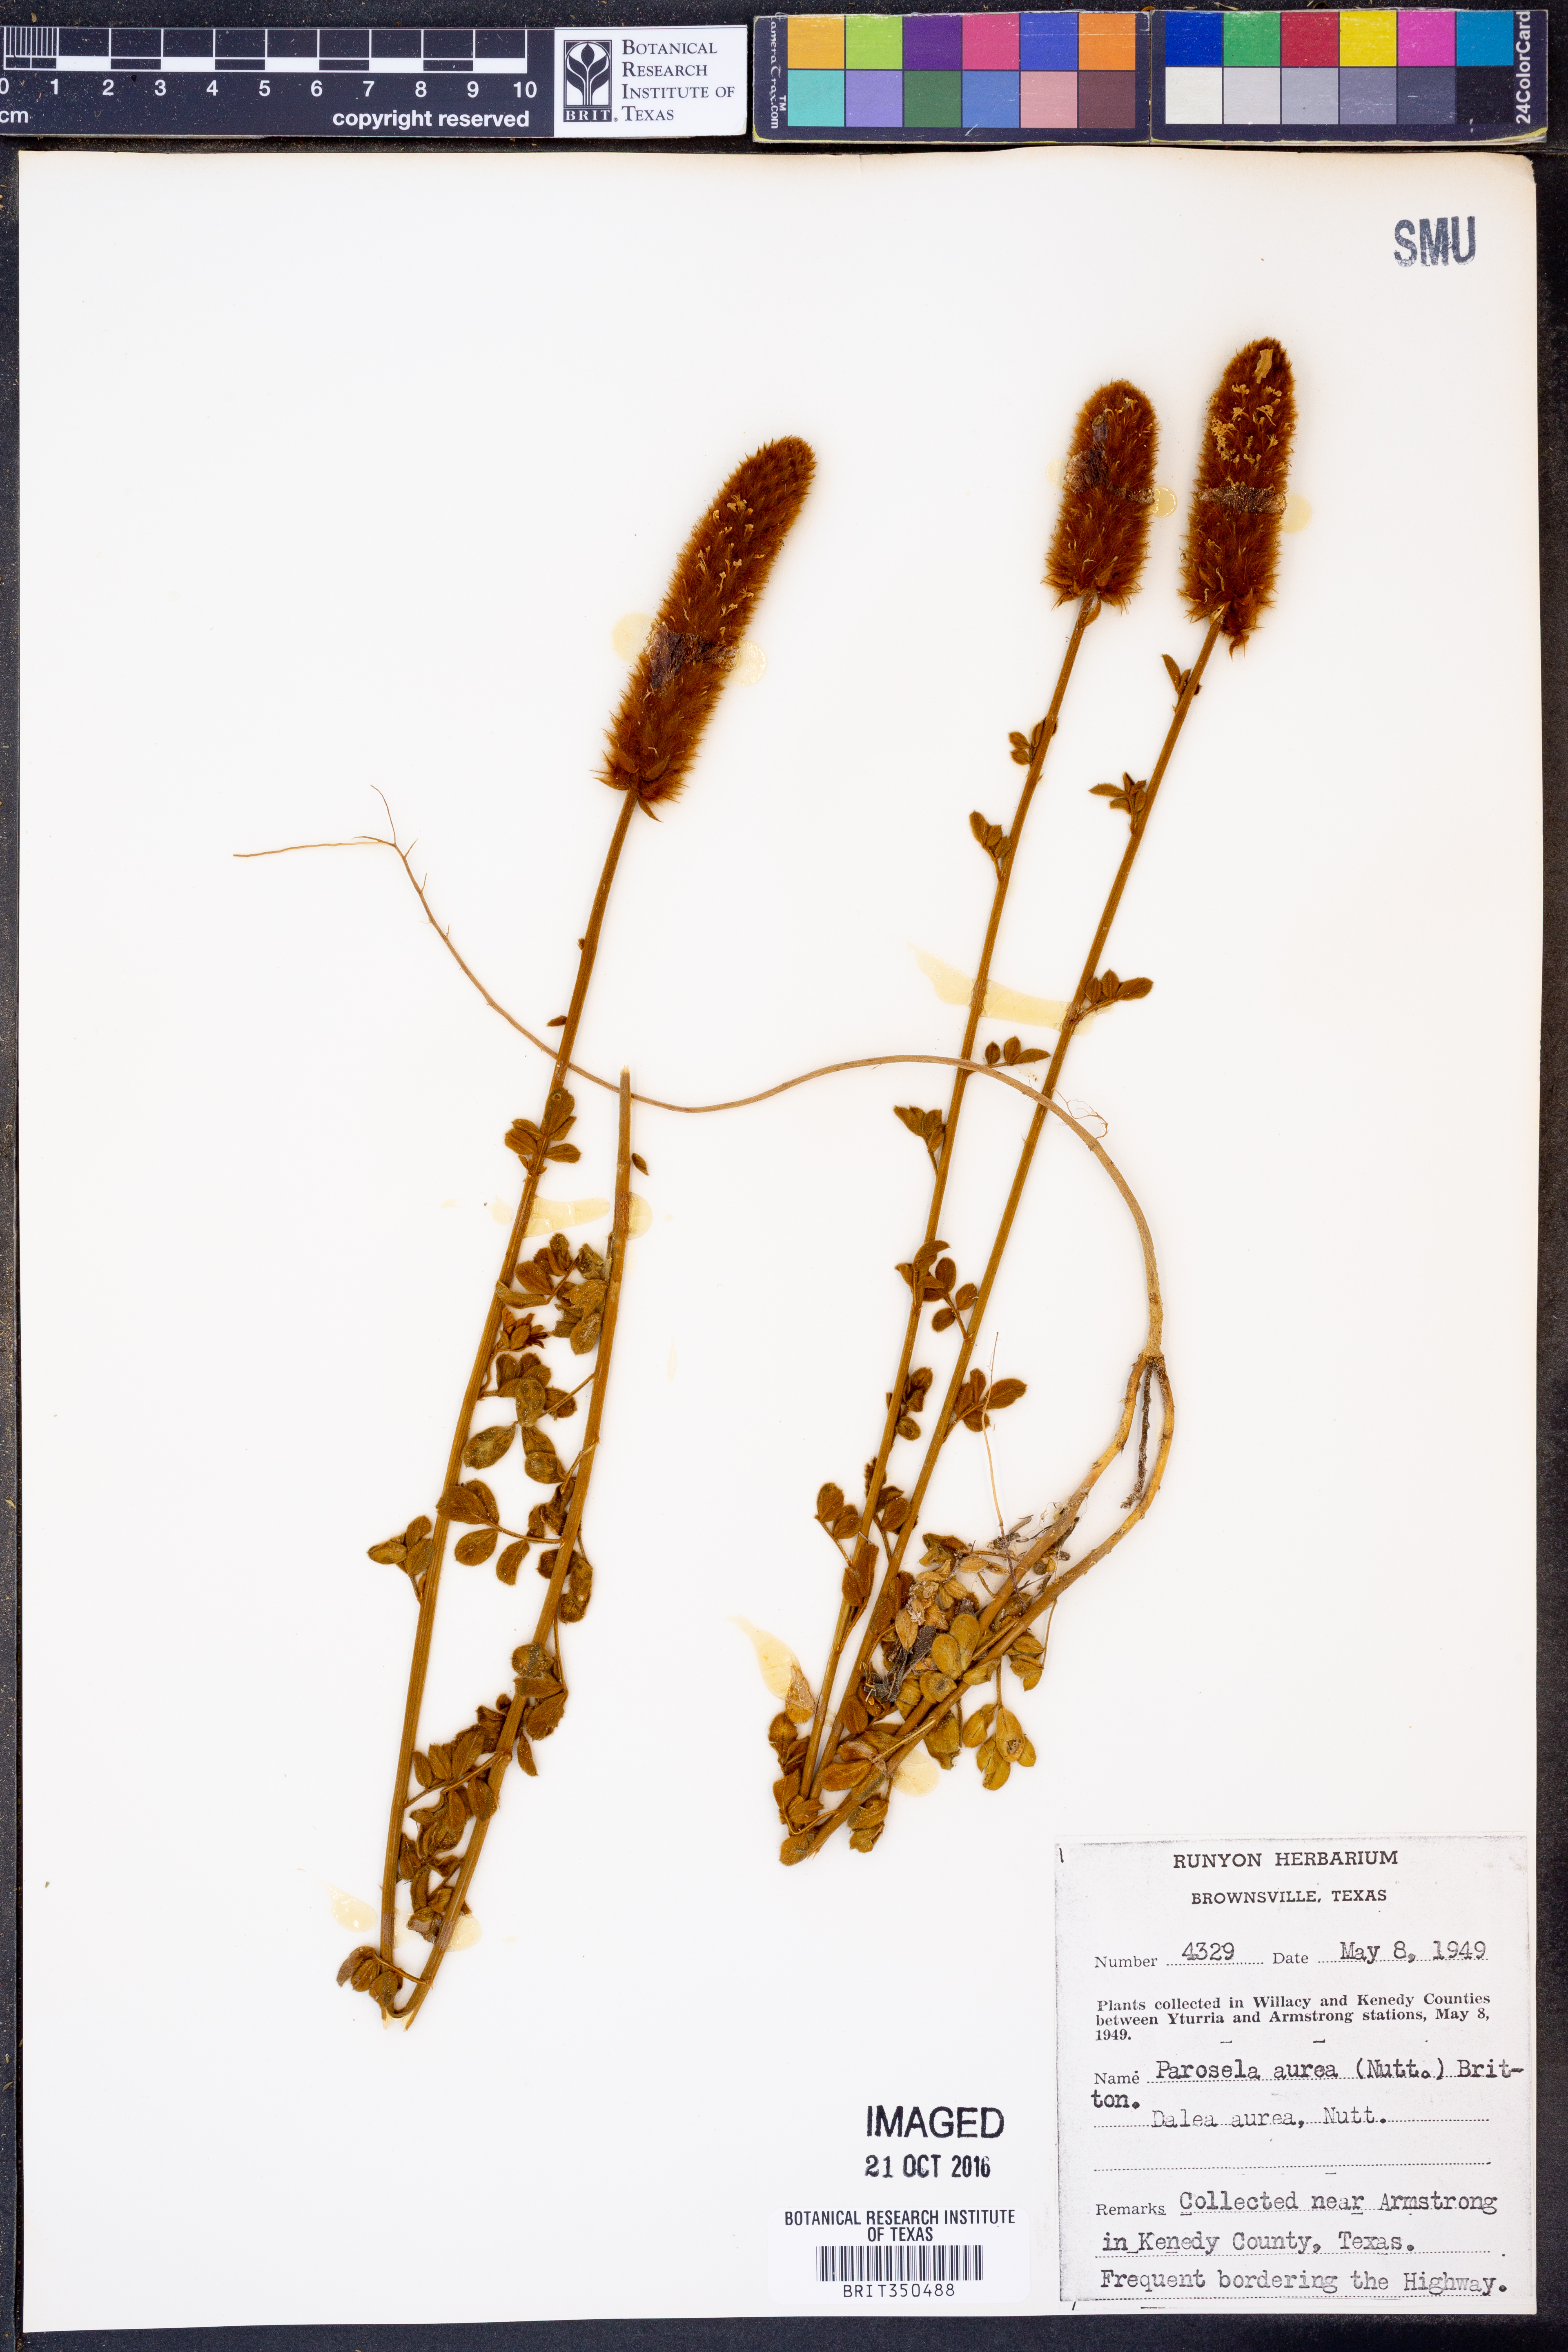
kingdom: Plantae
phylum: Tracheophyta
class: Magnoliopsida
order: Fabales
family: Fabaceae
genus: Dalea
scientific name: Dalea aurea
